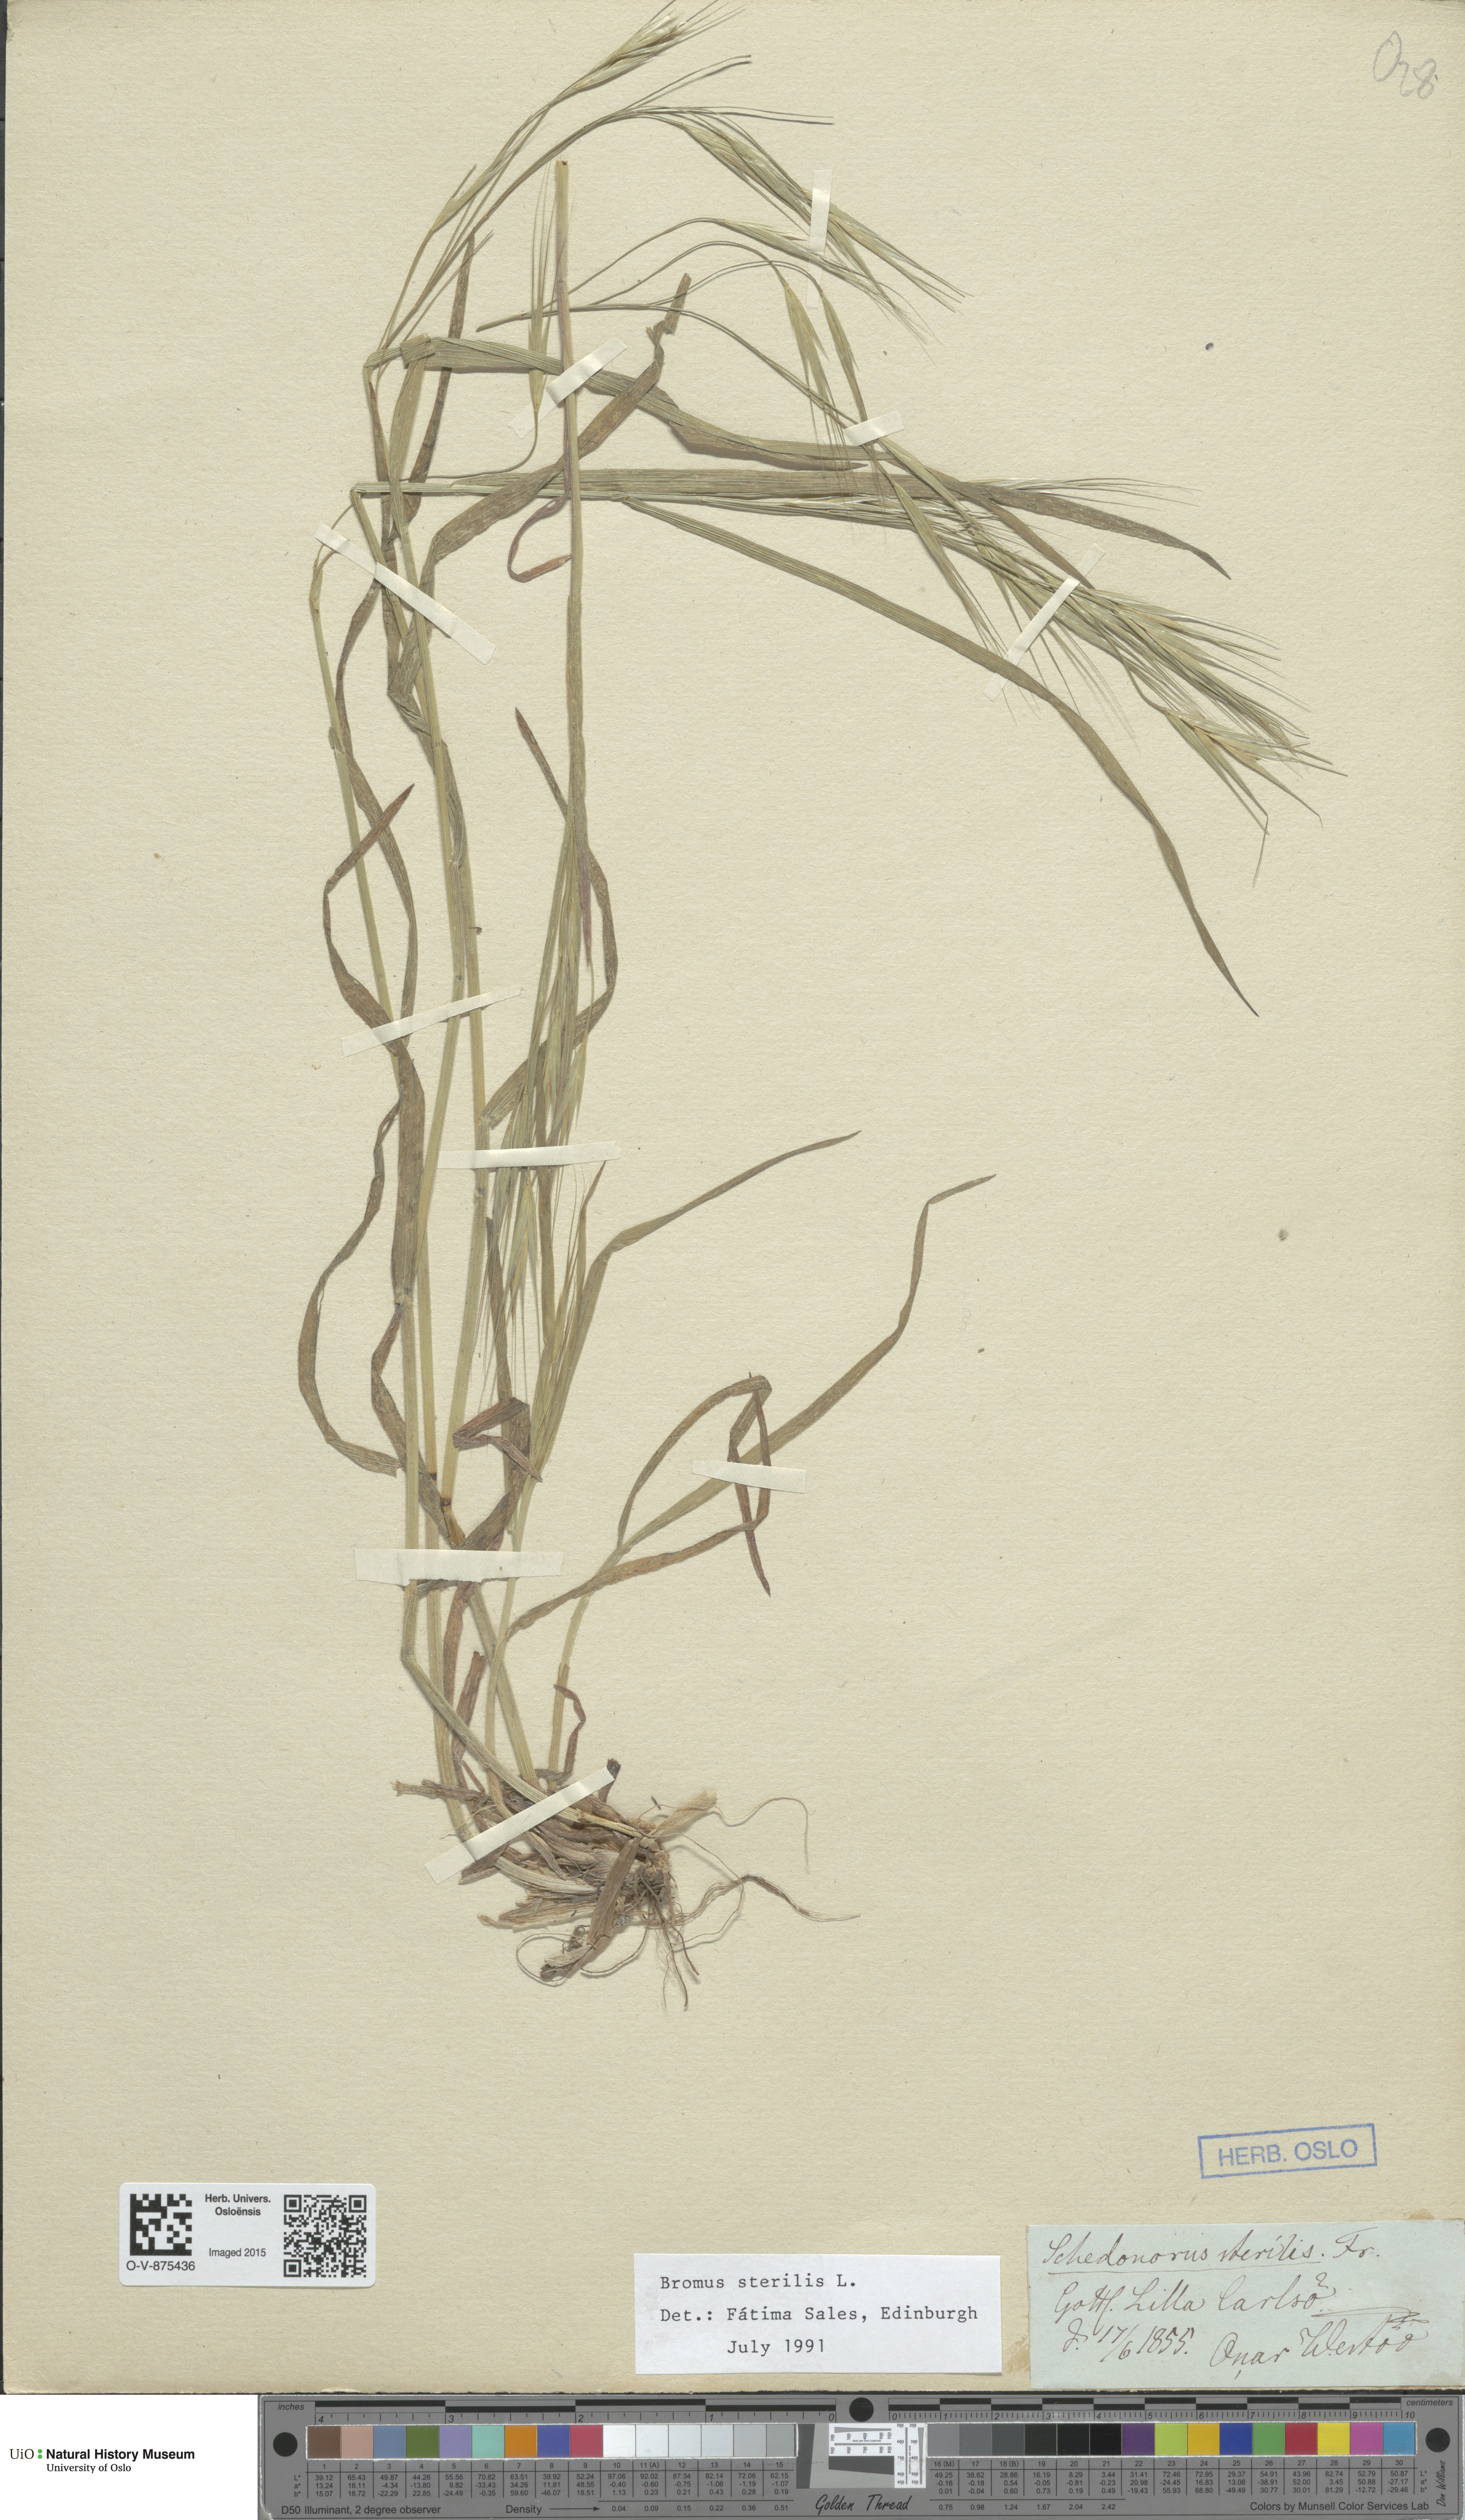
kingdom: Plantae
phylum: Tracheophyta
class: Liliopsida
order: Poales
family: Poaceae
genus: Bromus
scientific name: Bromus sterilis
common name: Poverty brome
